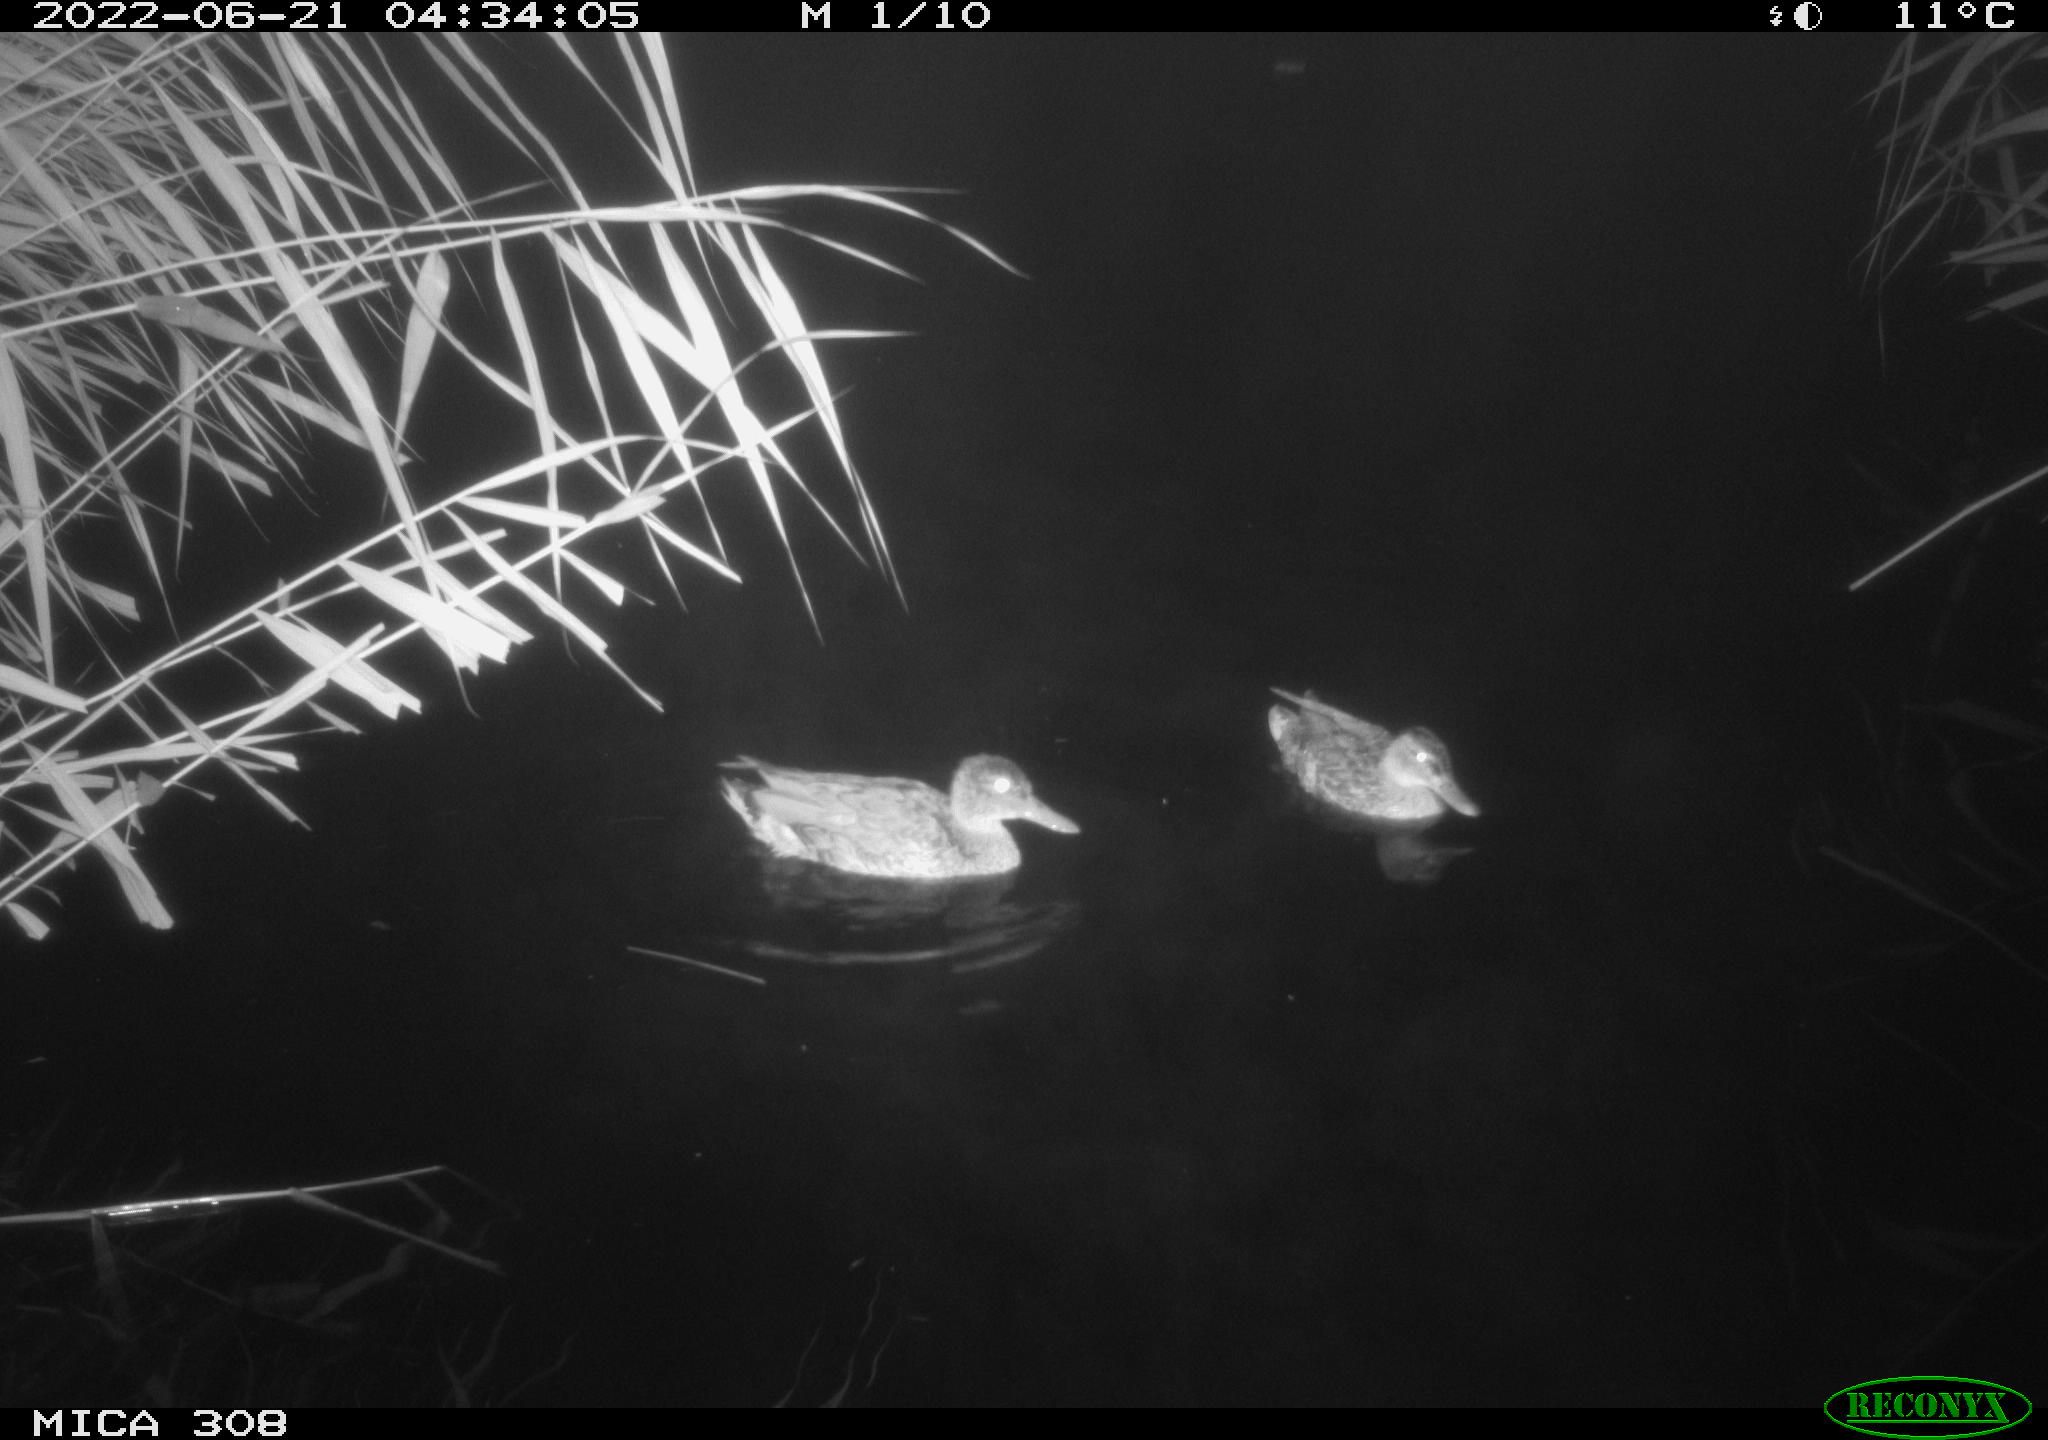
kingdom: Animalia
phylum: Chordata
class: Aves
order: Anseriformes
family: Anatidae
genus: Anas
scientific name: Anas platyrhynchos
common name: Mallard
